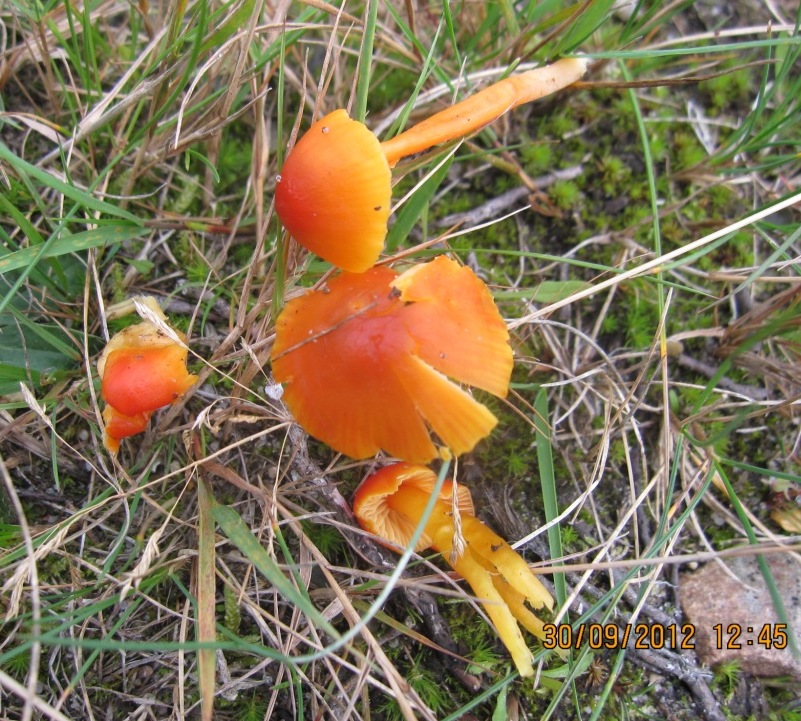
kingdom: Fungi
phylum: Basidiomycota
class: Agaricomycetes
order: Agaricales
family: Hygrophoraceae
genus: Hygrocybe
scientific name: Hygrocybe mucronella
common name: bitter vokshat
